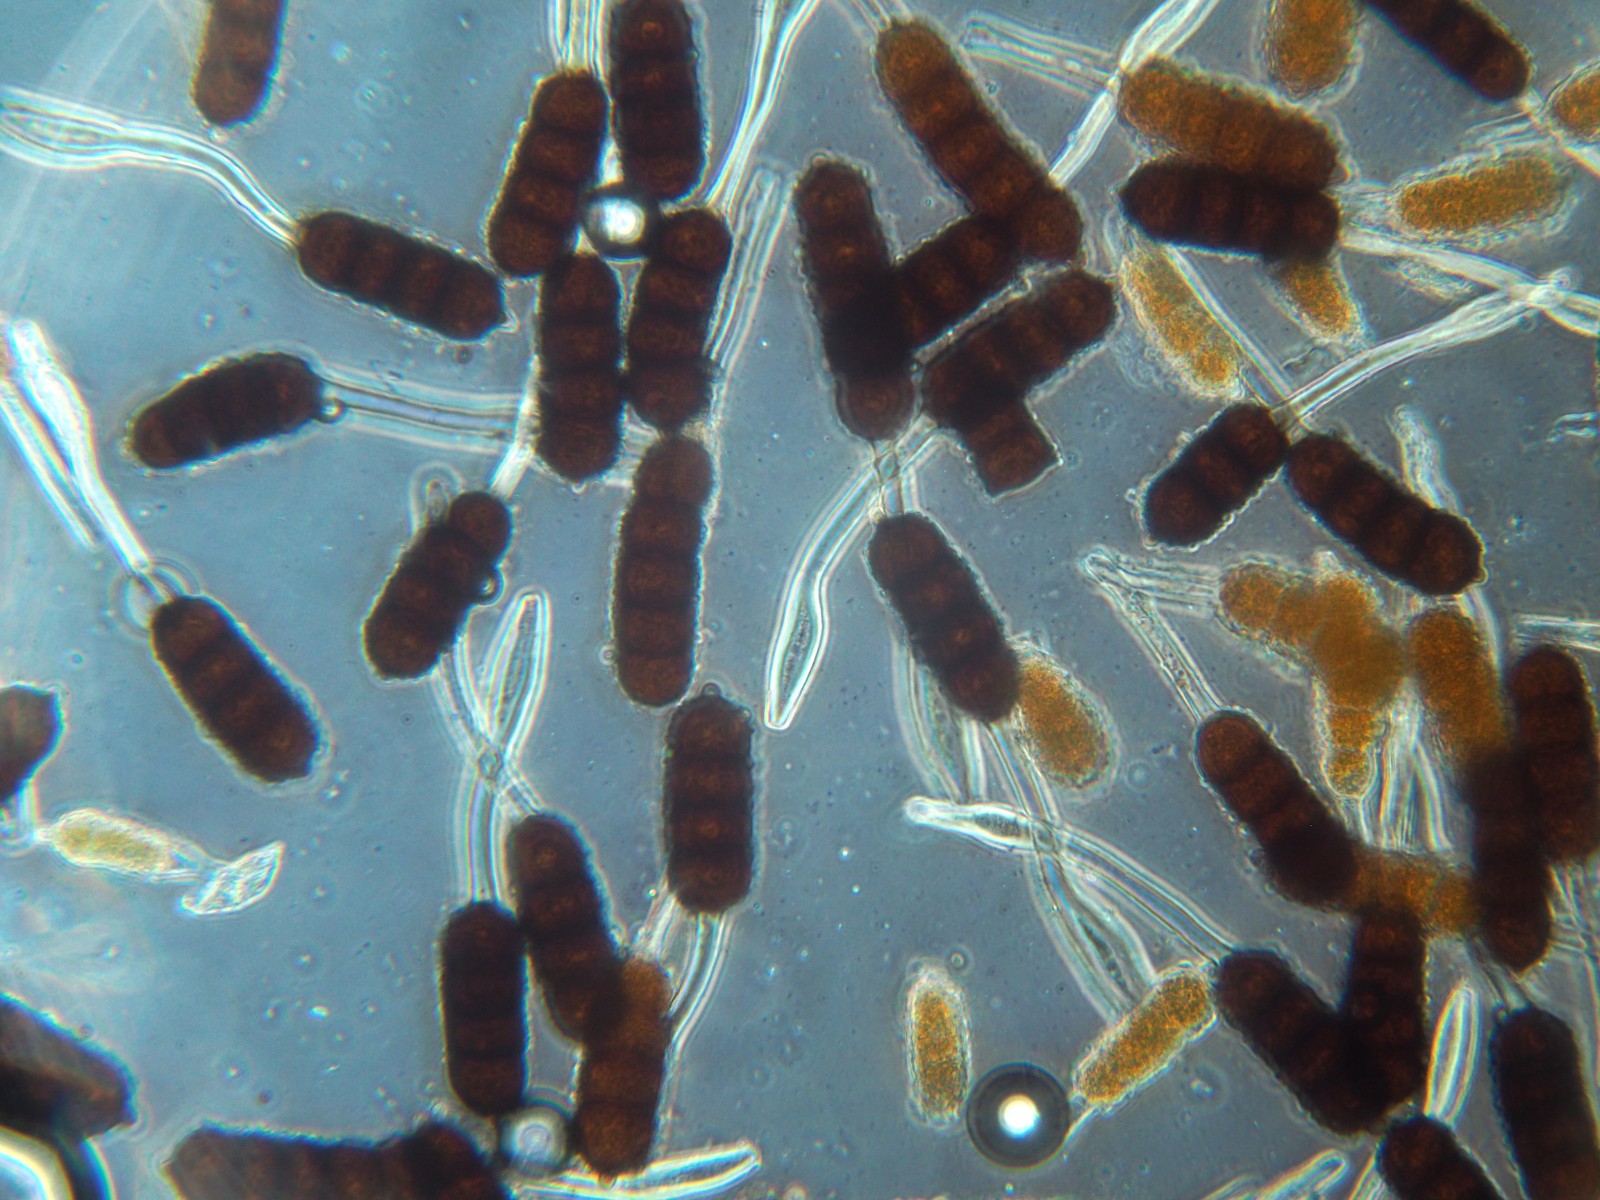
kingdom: Fungi
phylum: Basidiomycota
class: Pucciniomycetes
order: Pucciniales
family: Phragmidiaceae
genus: Phragmidium
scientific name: Phragmidium tuberculatum
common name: Rose rust
